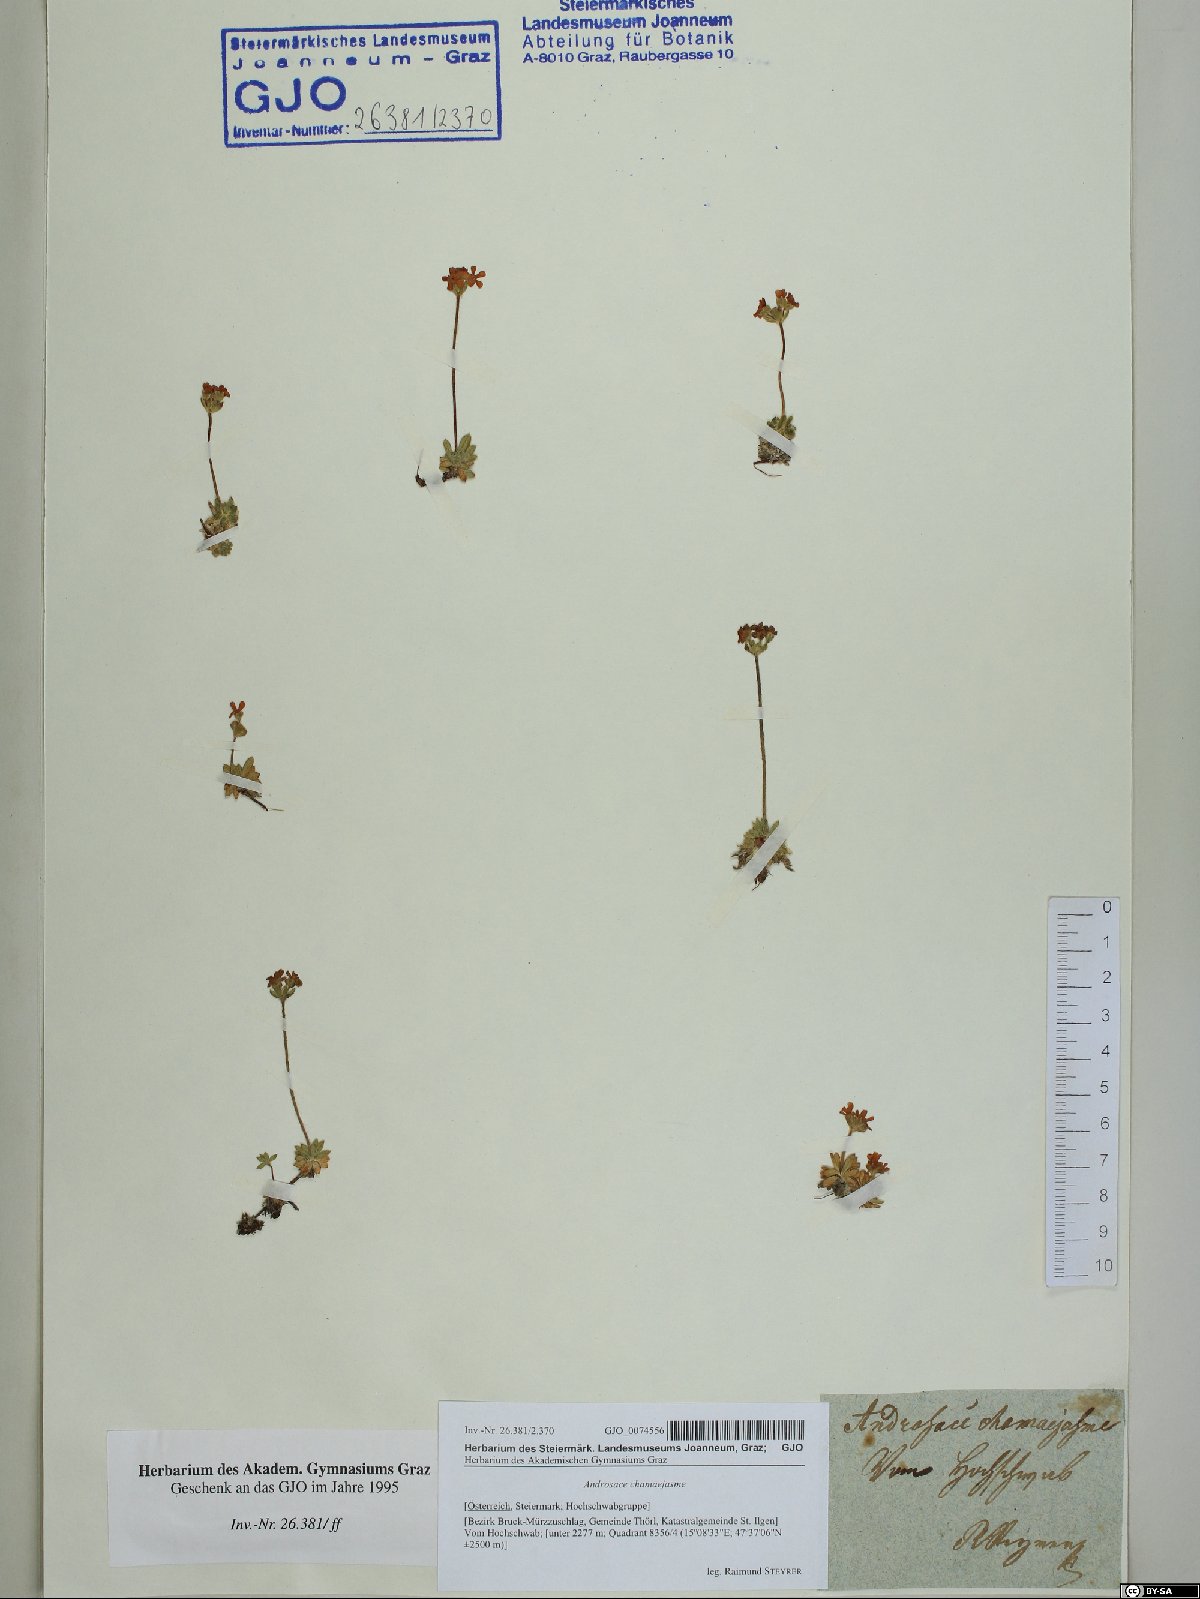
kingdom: Plantae
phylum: Tracheophyta
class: Magnoliopsida
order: Ericales
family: Primulaceae
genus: Androsace
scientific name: Androsace chamaejasme
